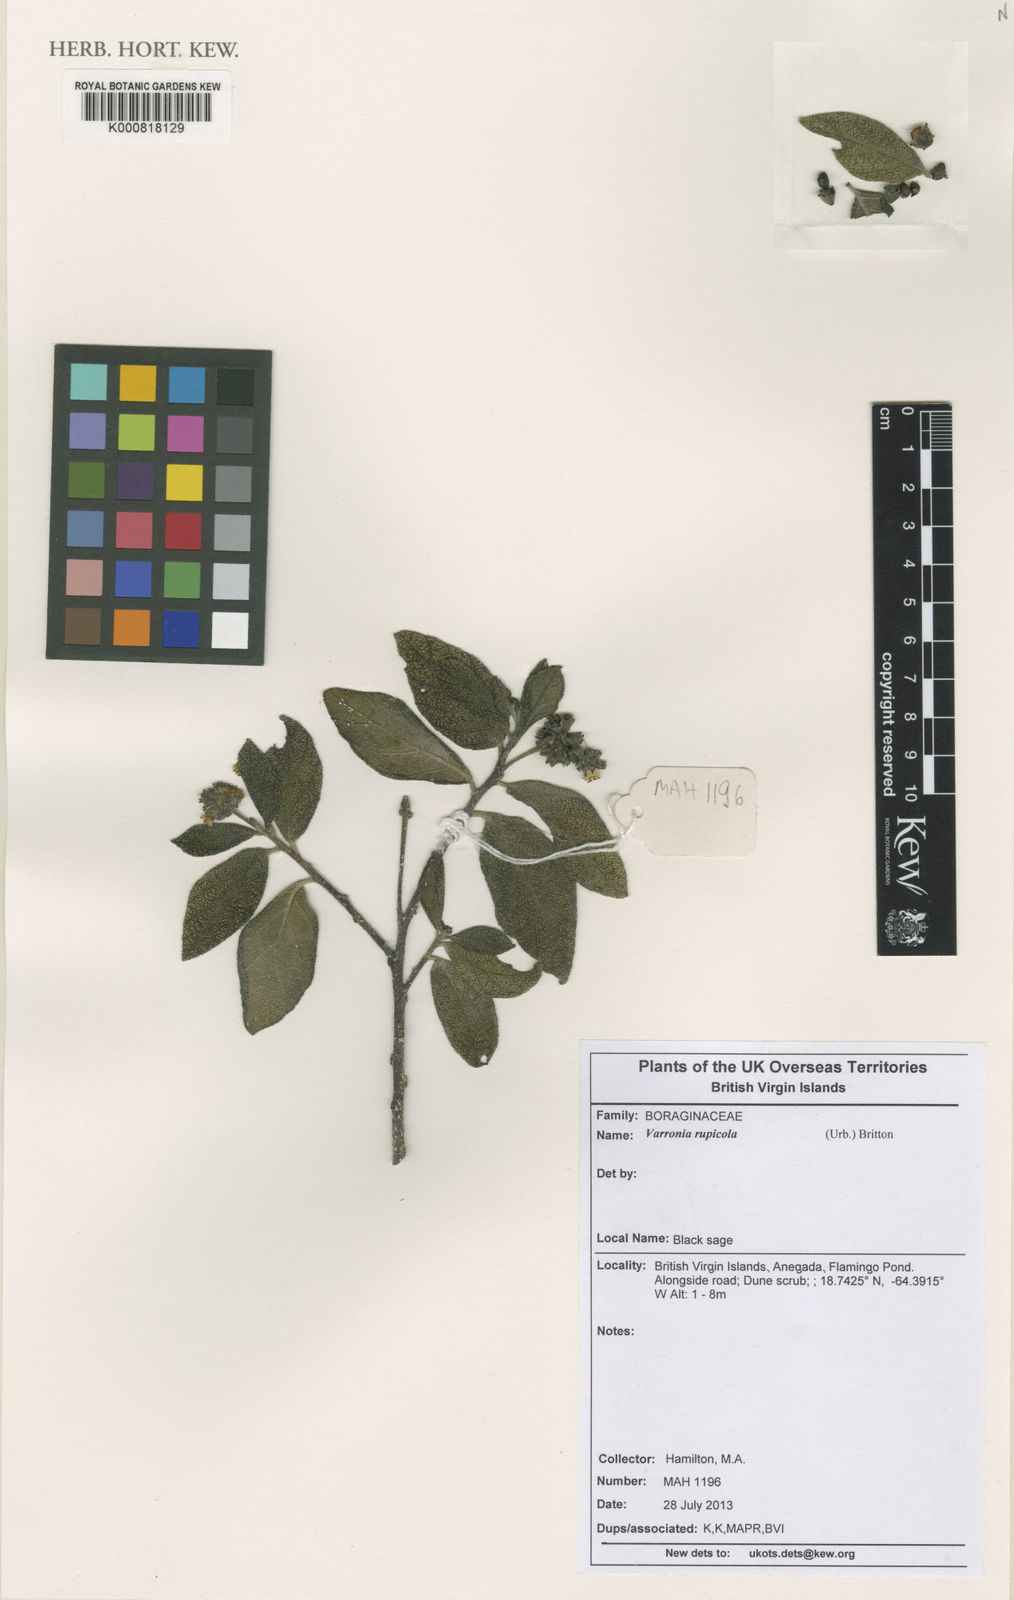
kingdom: Plantae
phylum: Tracheophyta
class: Magnoliopsida
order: Boraginales
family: Cordiaceae
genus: Varronia
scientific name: Varronia rupicola
